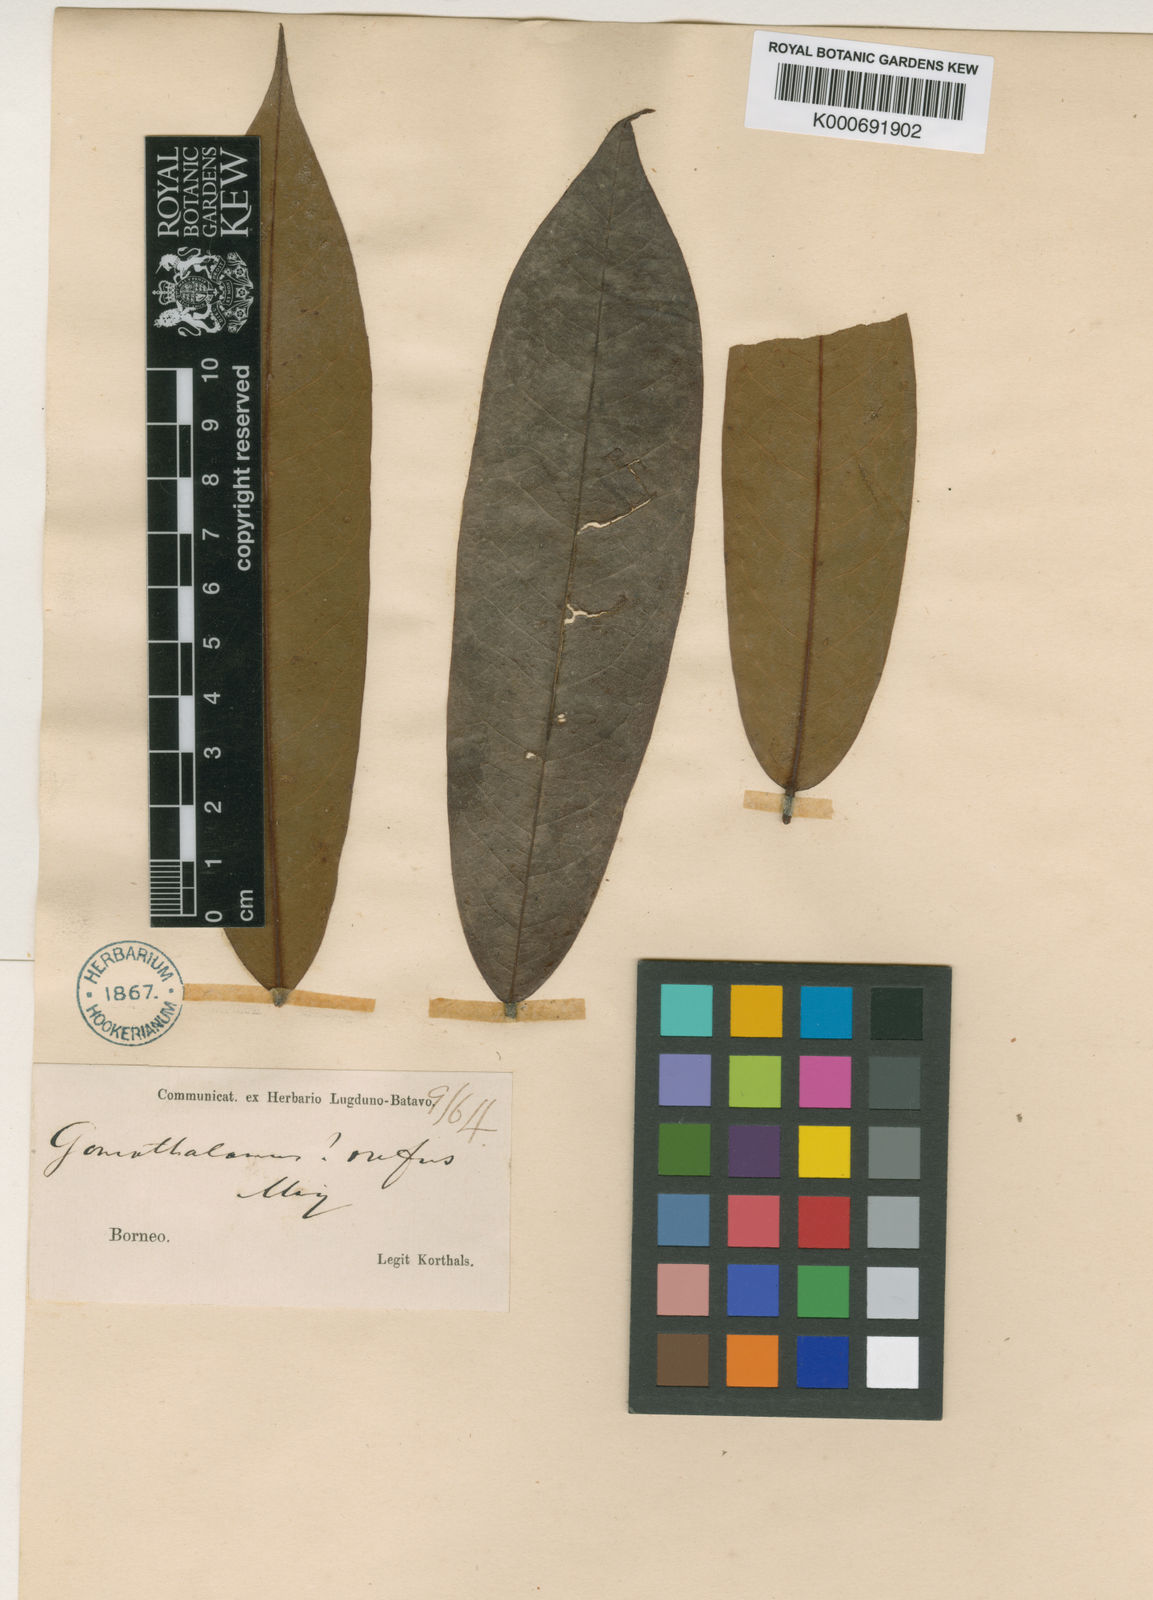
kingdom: Plantae
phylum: Tracheophyta
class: Magnoliopsida
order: Magnoliales
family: Annonaceae
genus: Goniothalamus
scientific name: Goniothalamus rufus
